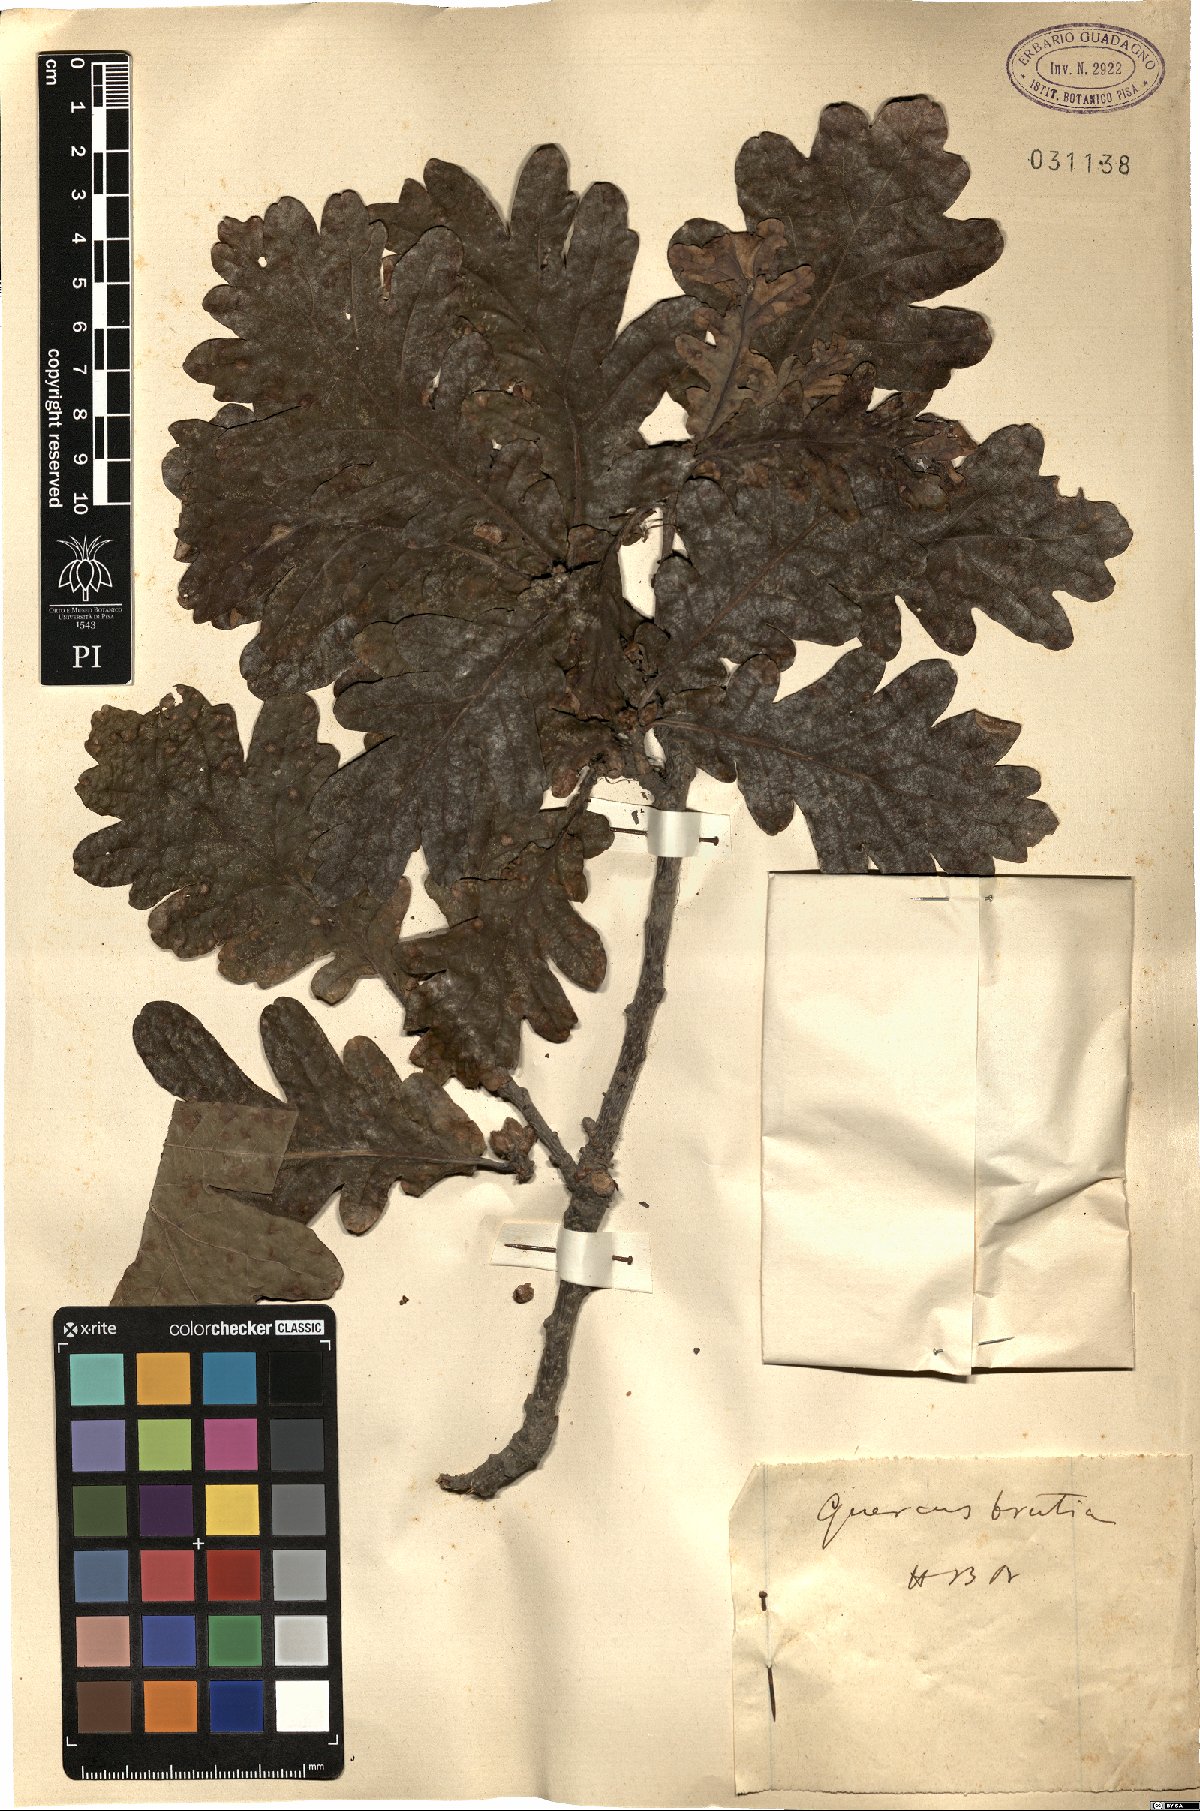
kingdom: Plantae
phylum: Tracheophyta
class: Magnoliopsida
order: Fagales
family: Fagaceae
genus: Quercus
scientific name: Quercus robur
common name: Pedunculate oak
